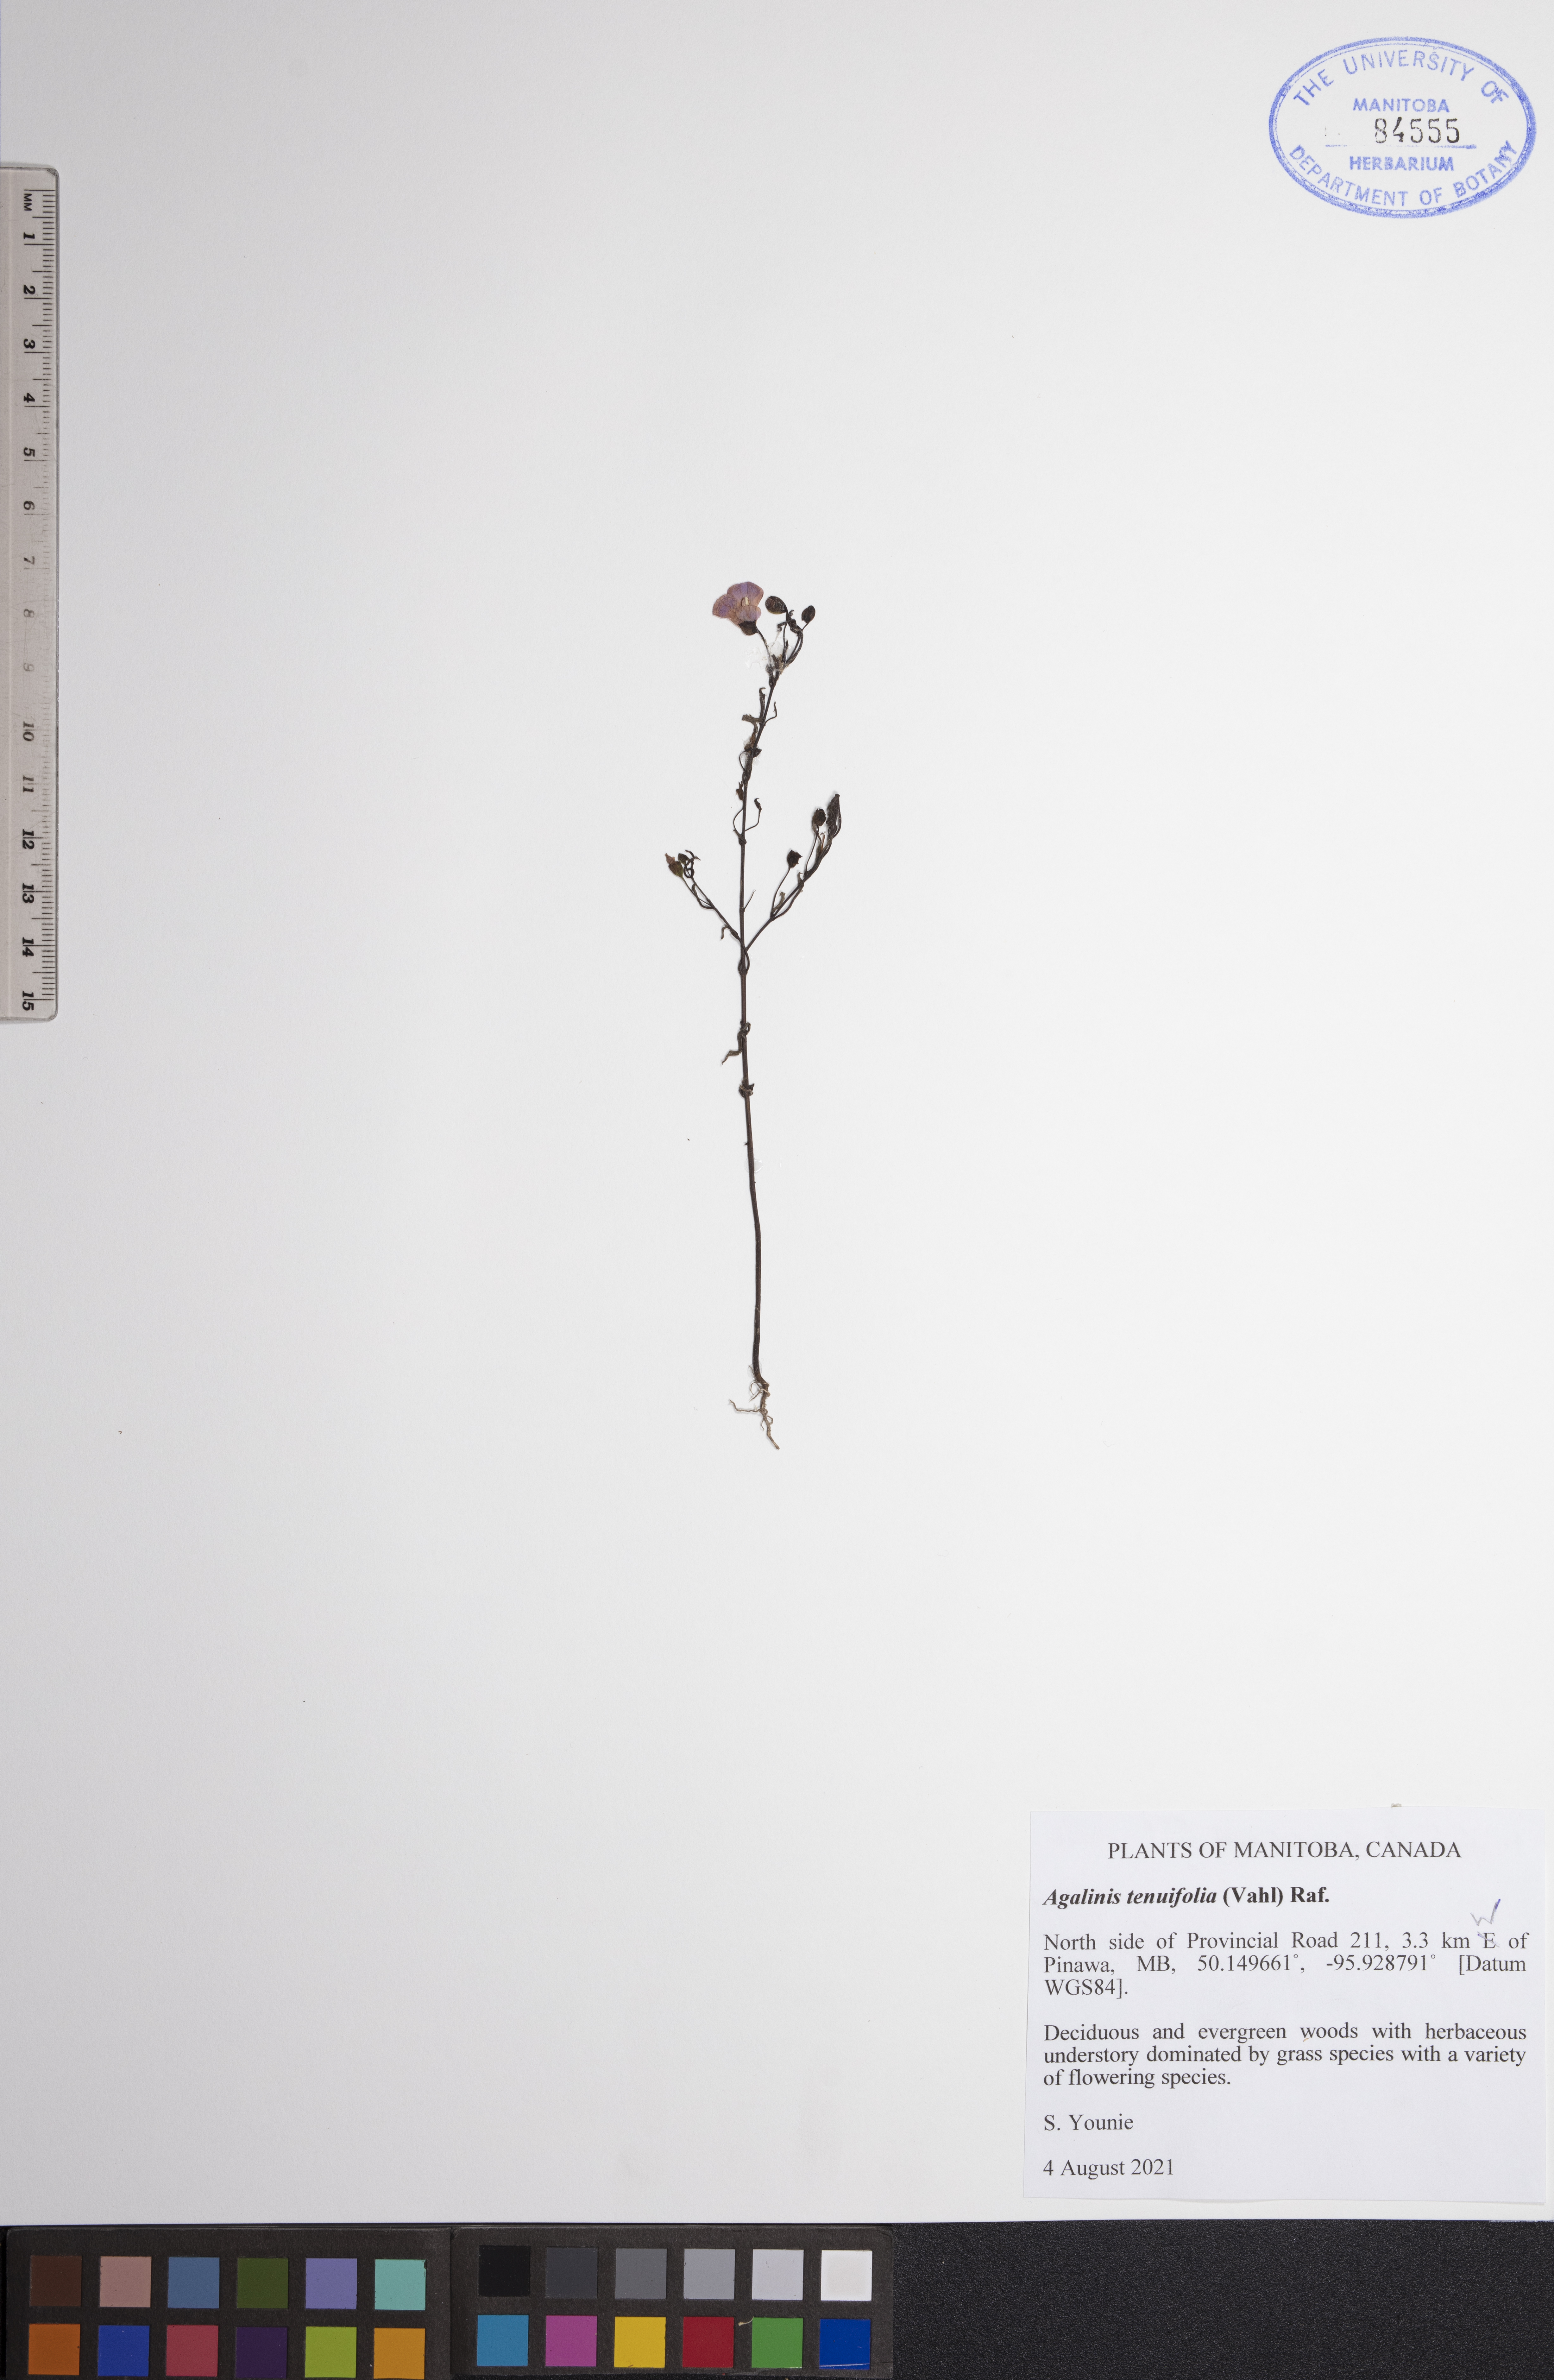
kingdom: Plantae
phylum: Tracheophyta
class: Magnoliopsida
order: Lamiales
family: Orobanchaceae
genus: Agalinis
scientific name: Agalinis tenuifolia
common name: Slender agalinis
